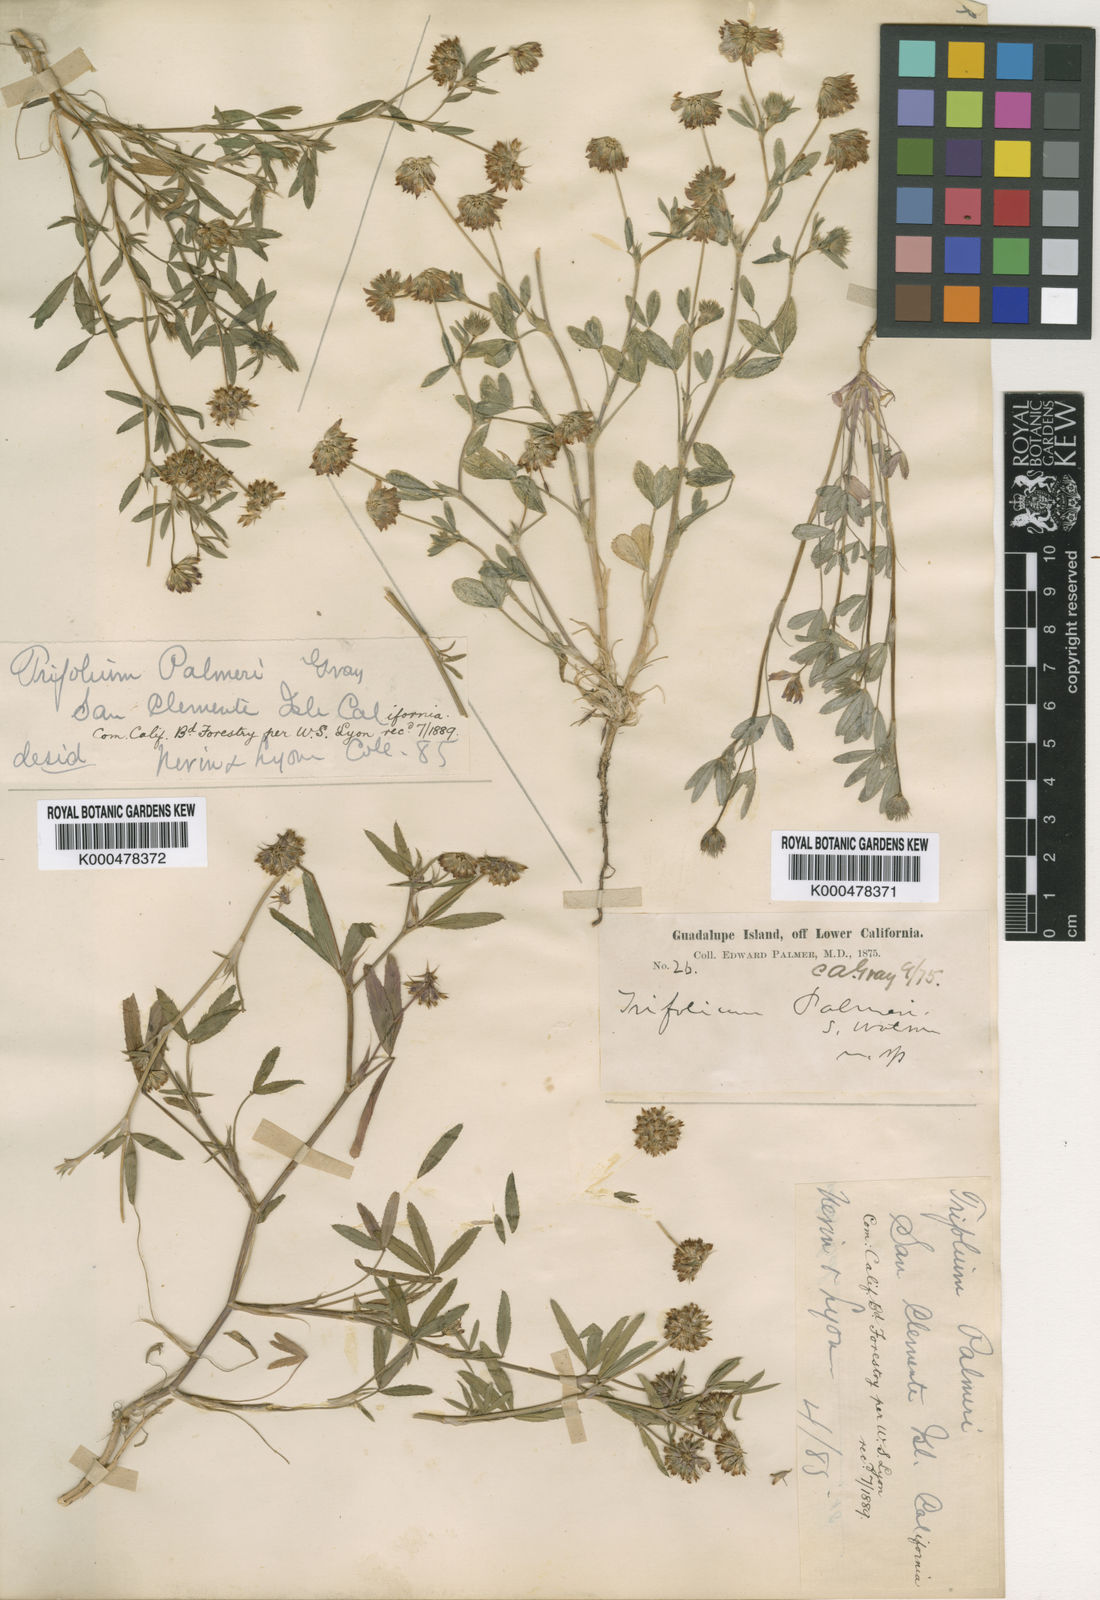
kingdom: Plantae
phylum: Tracheophyta
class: Magnoliopsida
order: Fabales
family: Fabaceae
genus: Trifolium
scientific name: Trifolium palmeri
